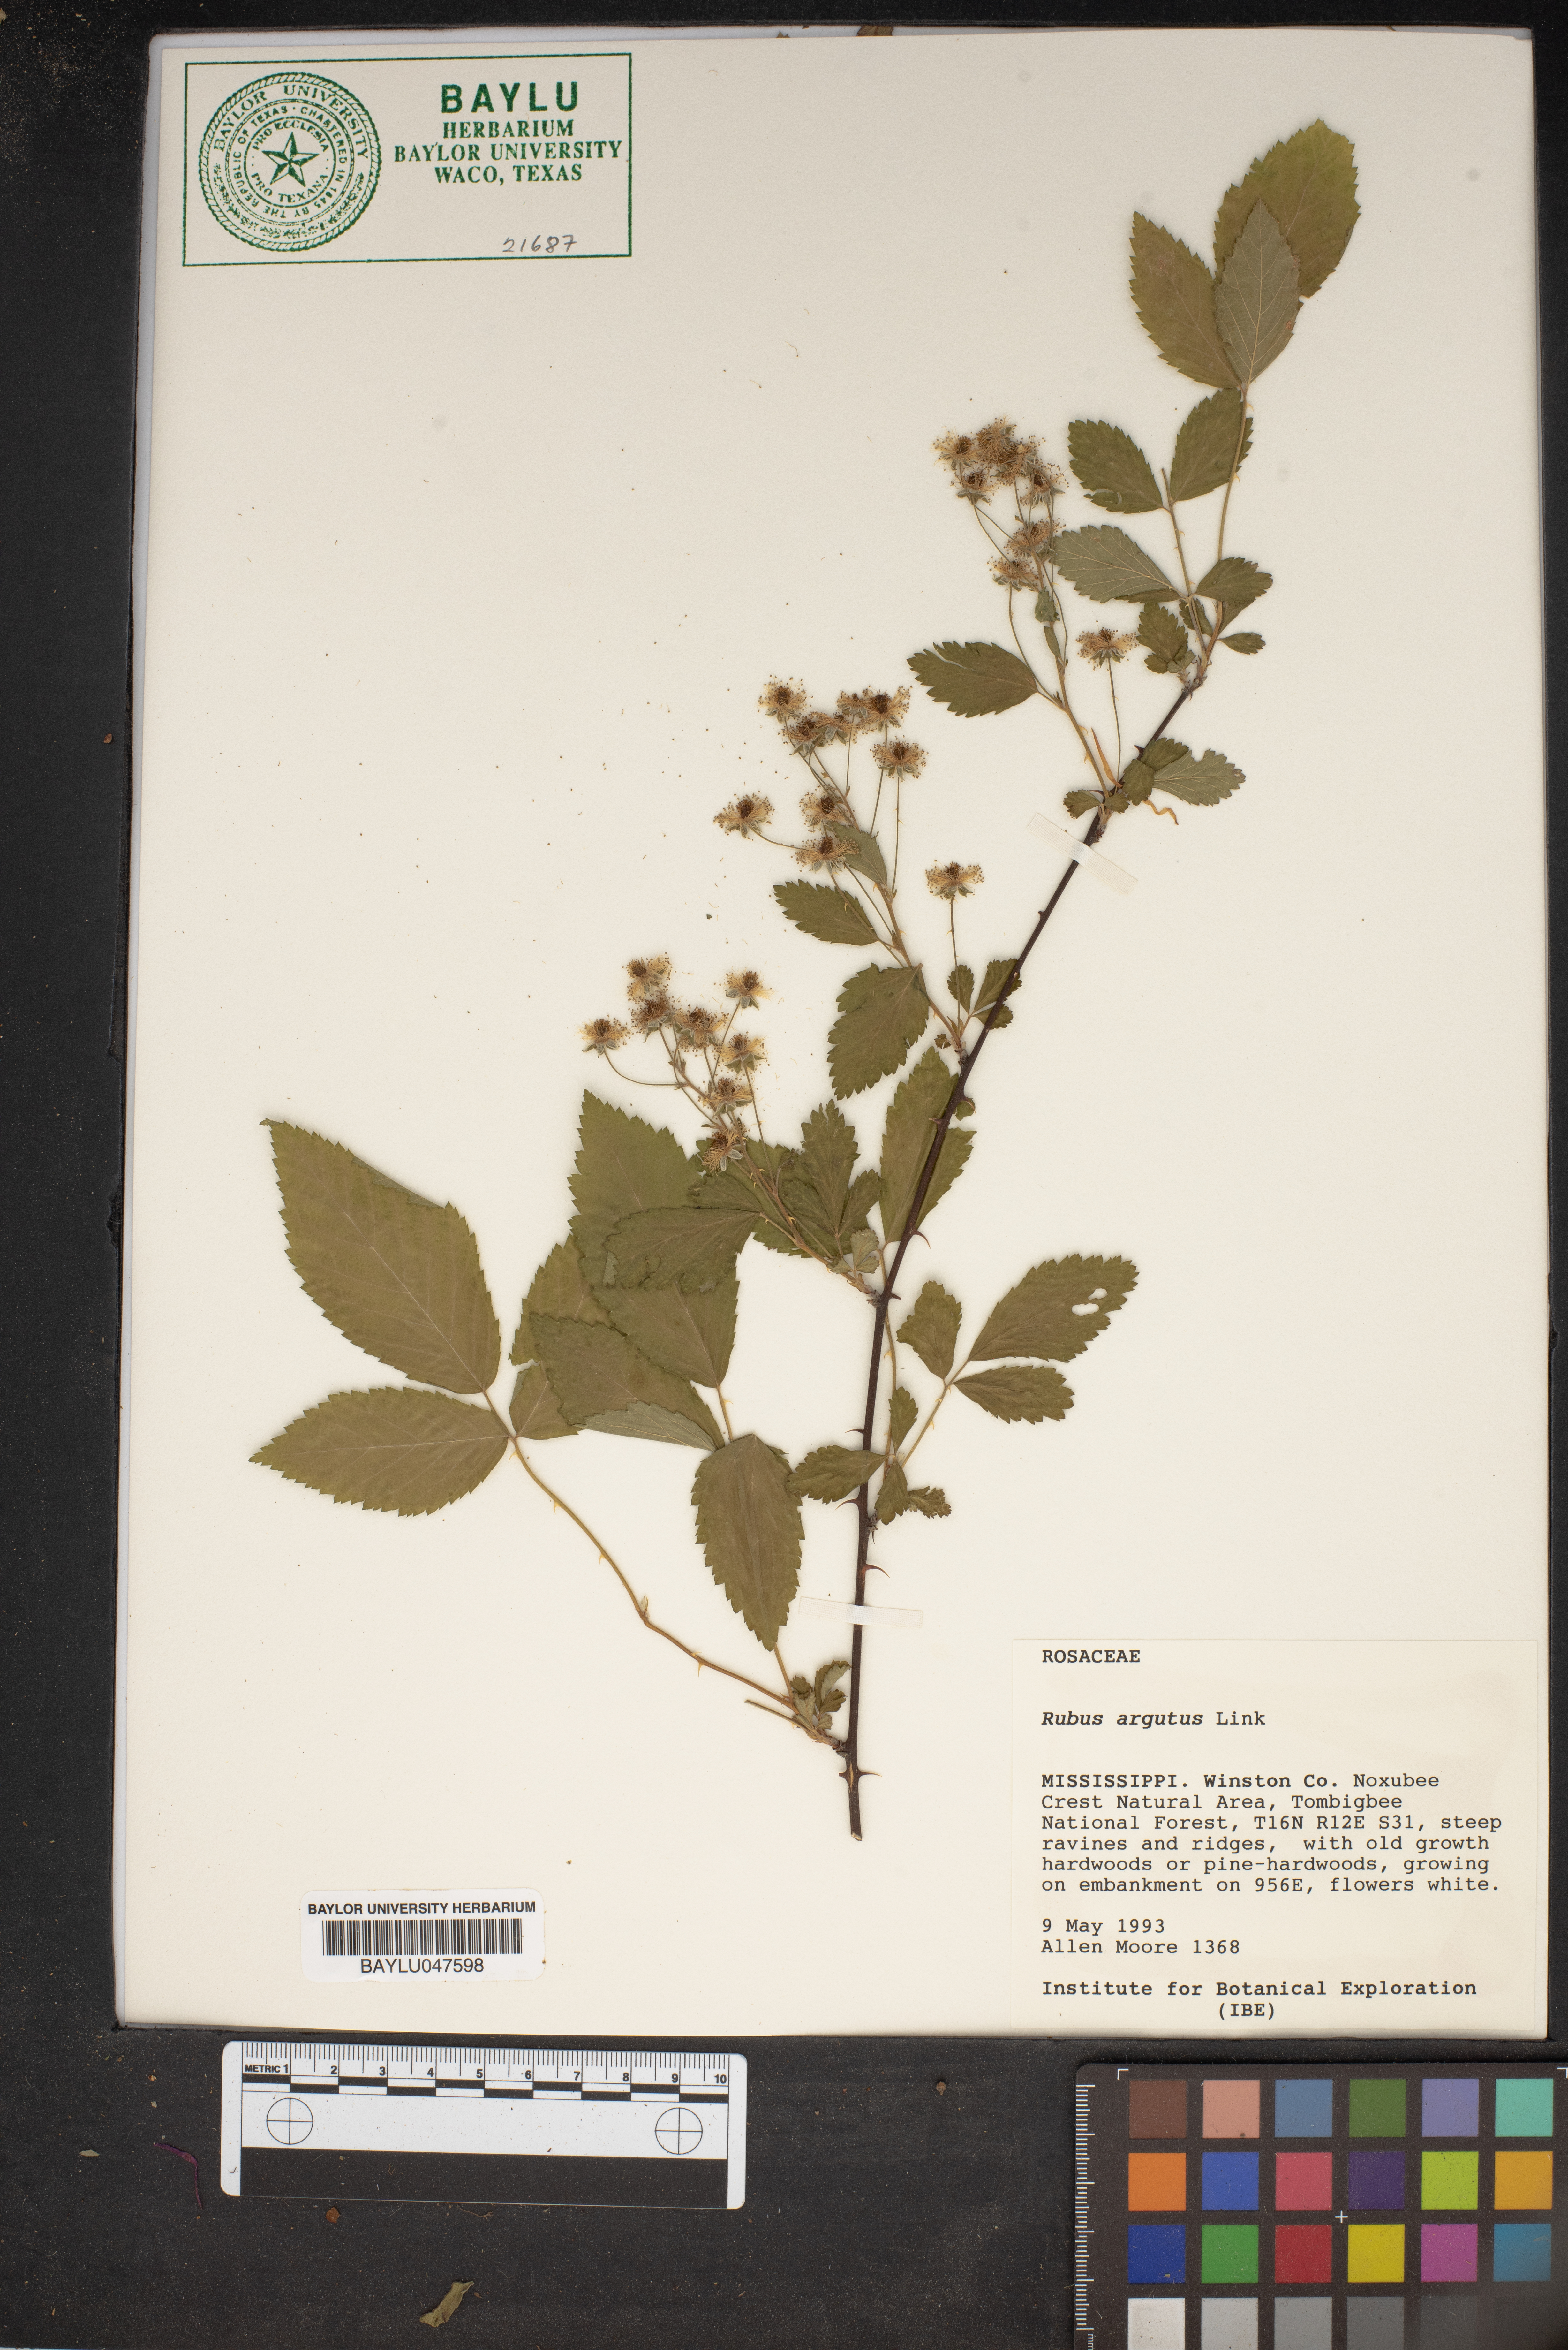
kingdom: Plantae
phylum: Tracheophyta
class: Magnoliopsida
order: Rosales
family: Rosaceae
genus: Rubus
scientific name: Rubus argutus
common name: Sawtooth blackberry
